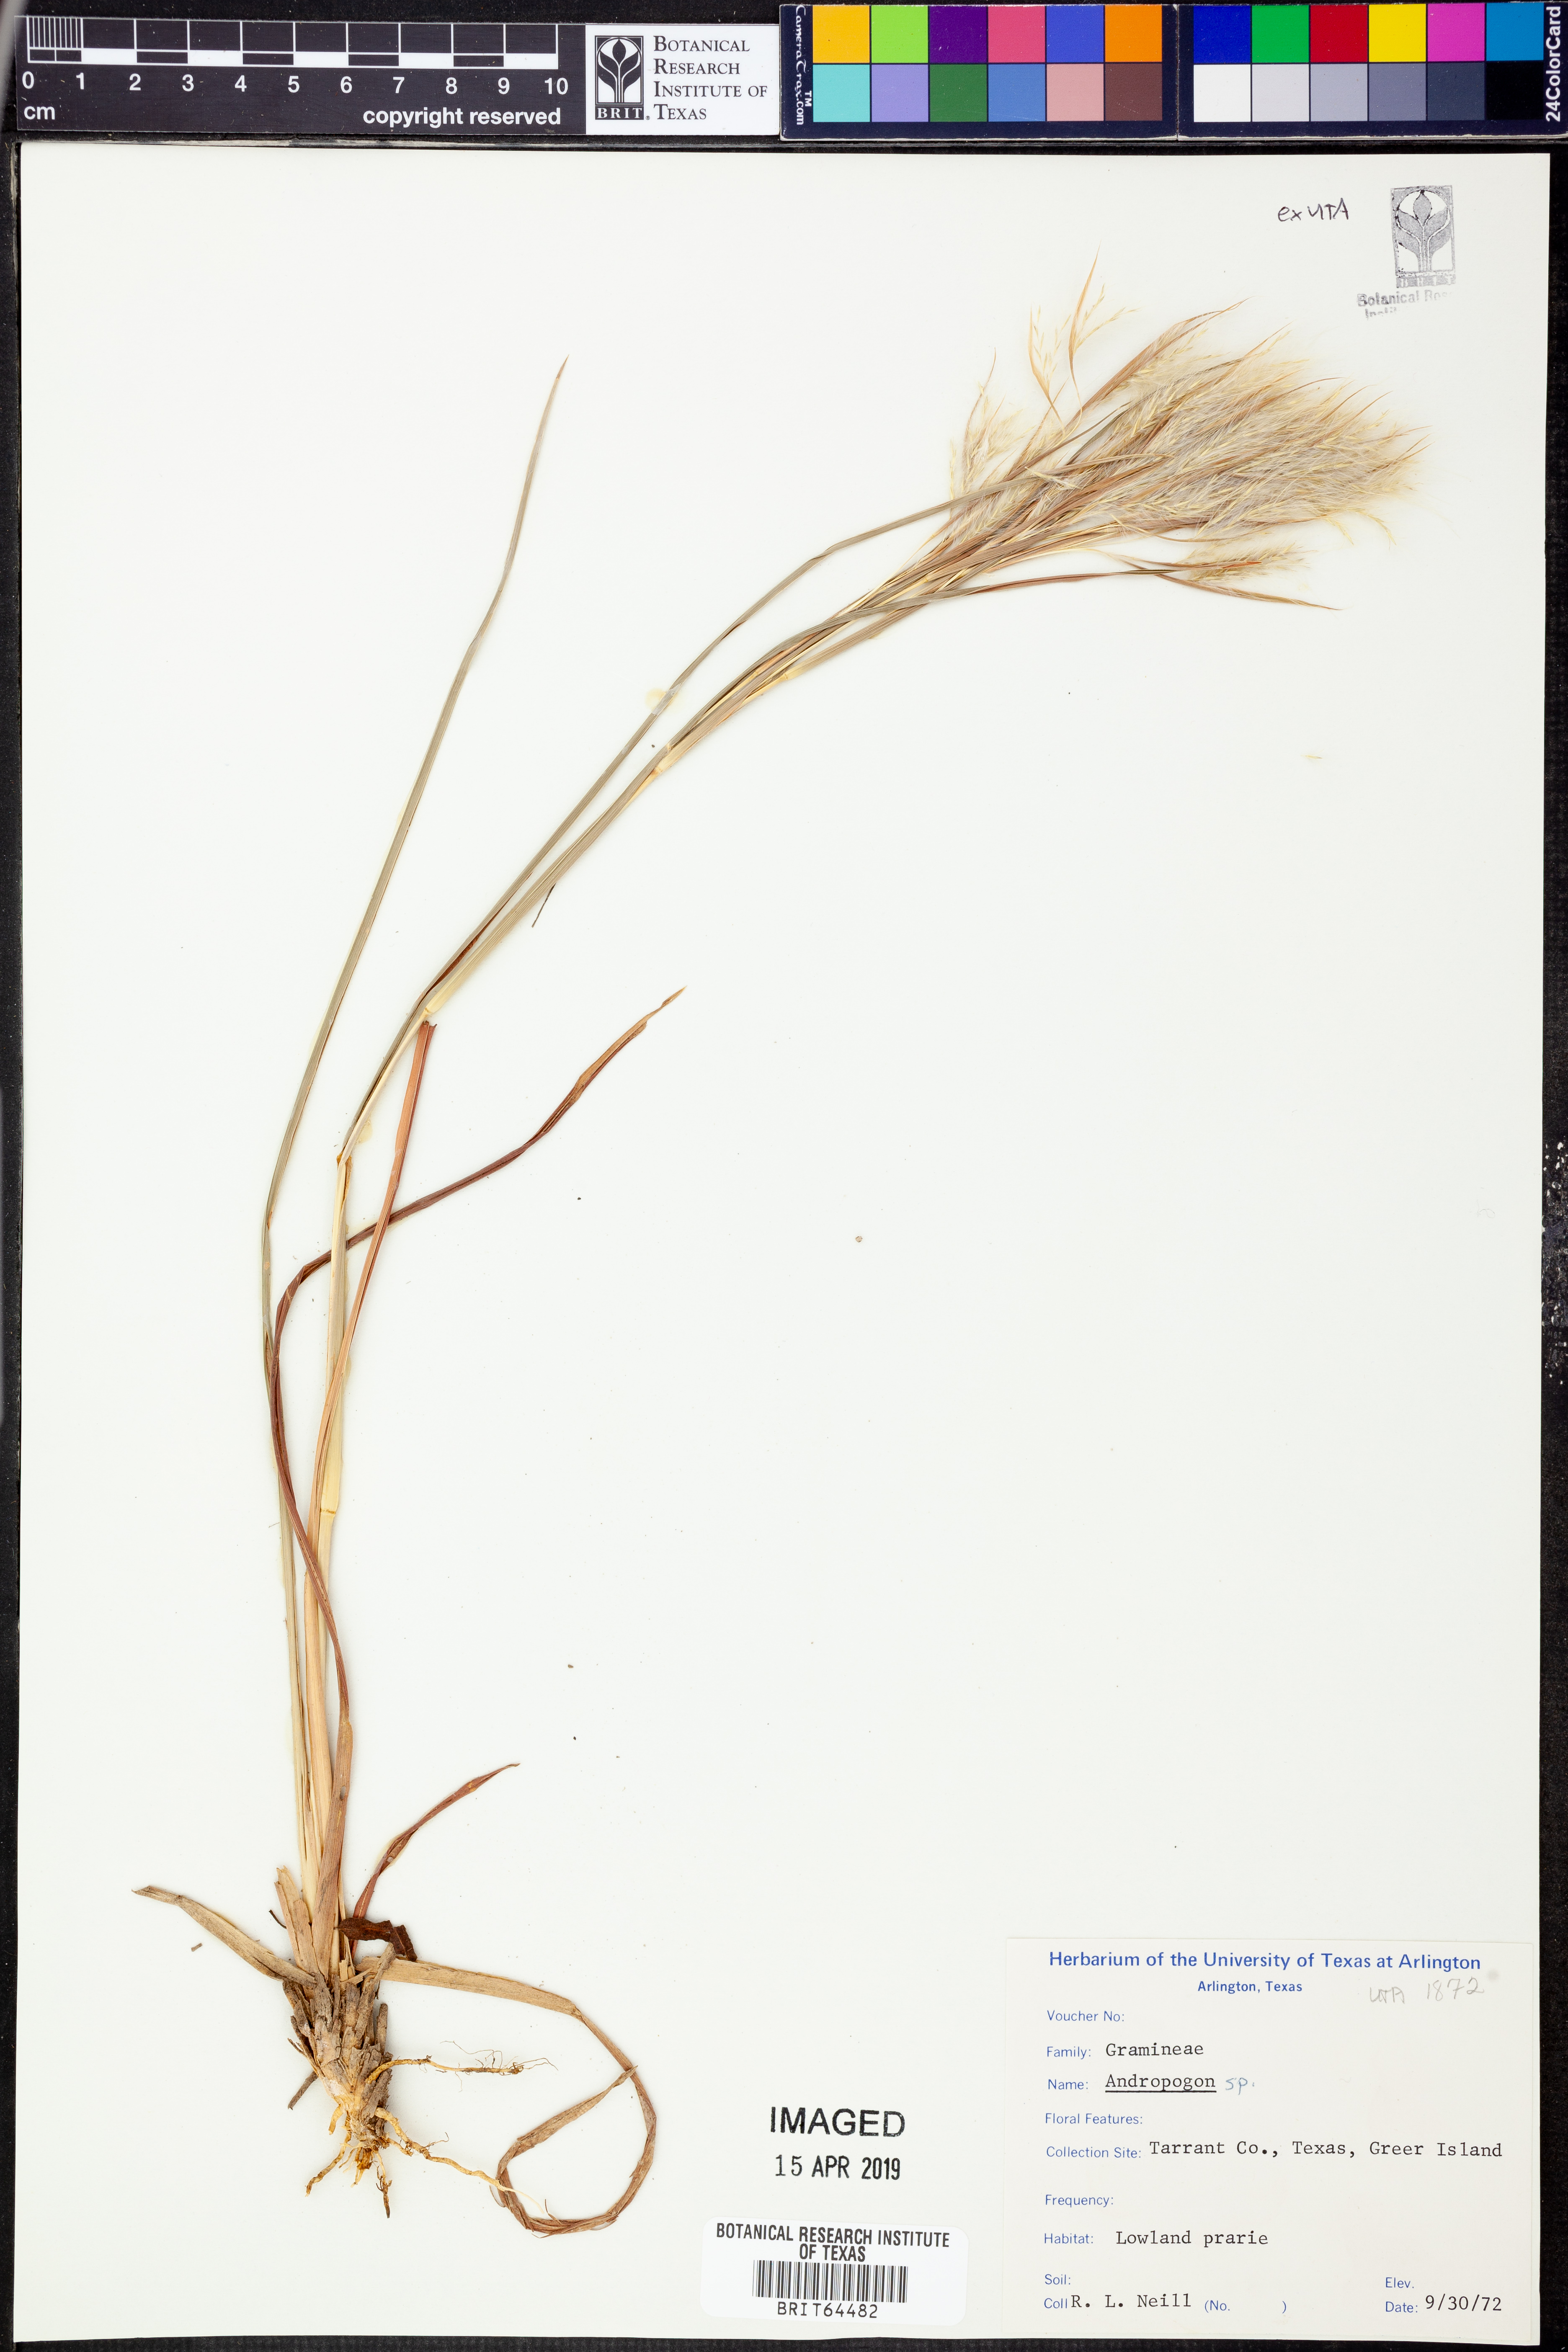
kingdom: Plantae
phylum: Tracheophyta
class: Liliopsida
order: Poales
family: Poaceae
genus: Andropogon
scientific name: Andropogon
